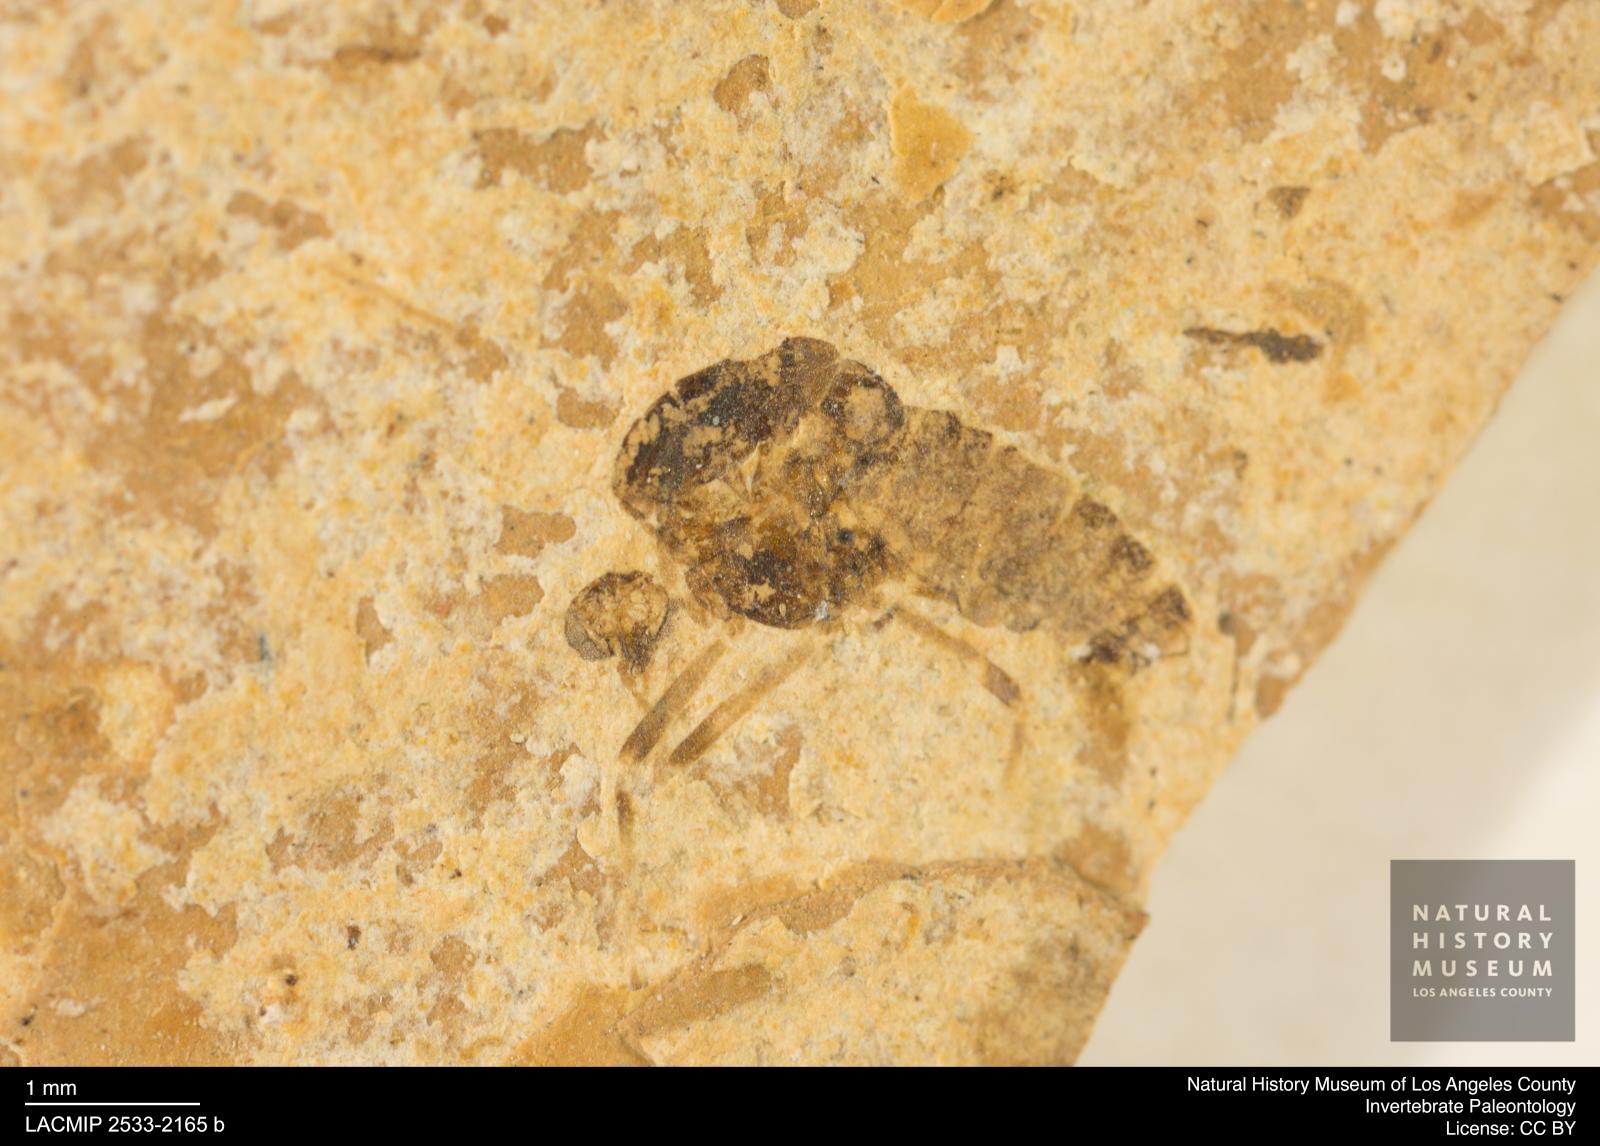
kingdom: Animalia
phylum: Arthropoda
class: Insecta
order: Diptera
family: Chironomidae
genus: Tanypus
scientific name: Tanypus dorminans
